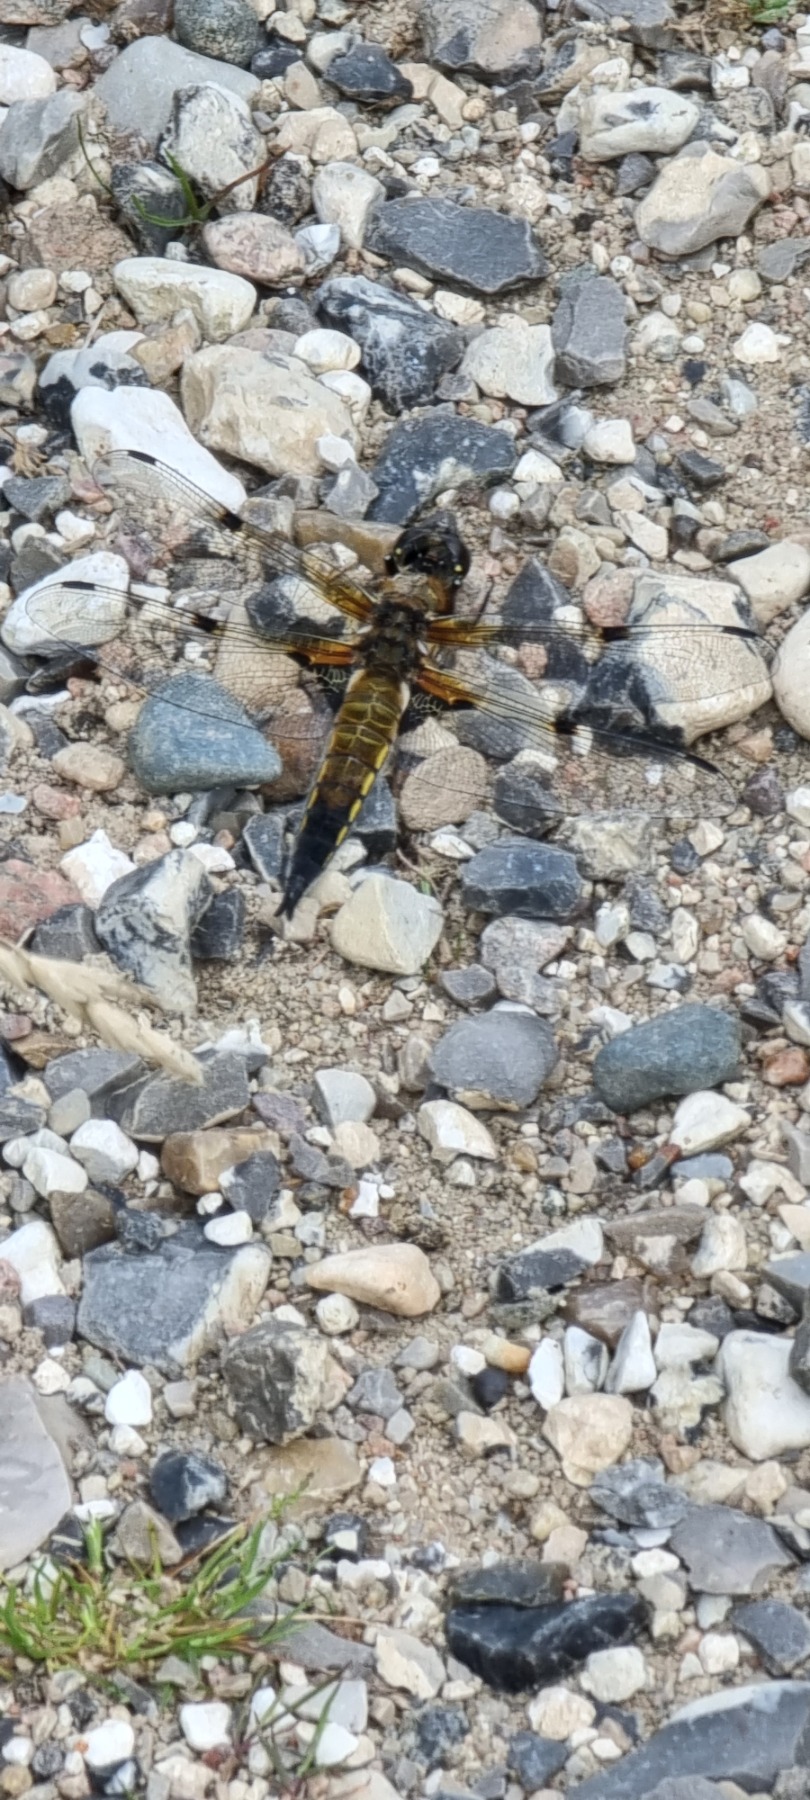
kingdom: Animalia
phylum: Arthropoda
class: Insecta
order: Odonata
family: Libellulidae
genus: Libellula
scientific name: Libellula quadrimaculata
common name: Fireplettet libel
